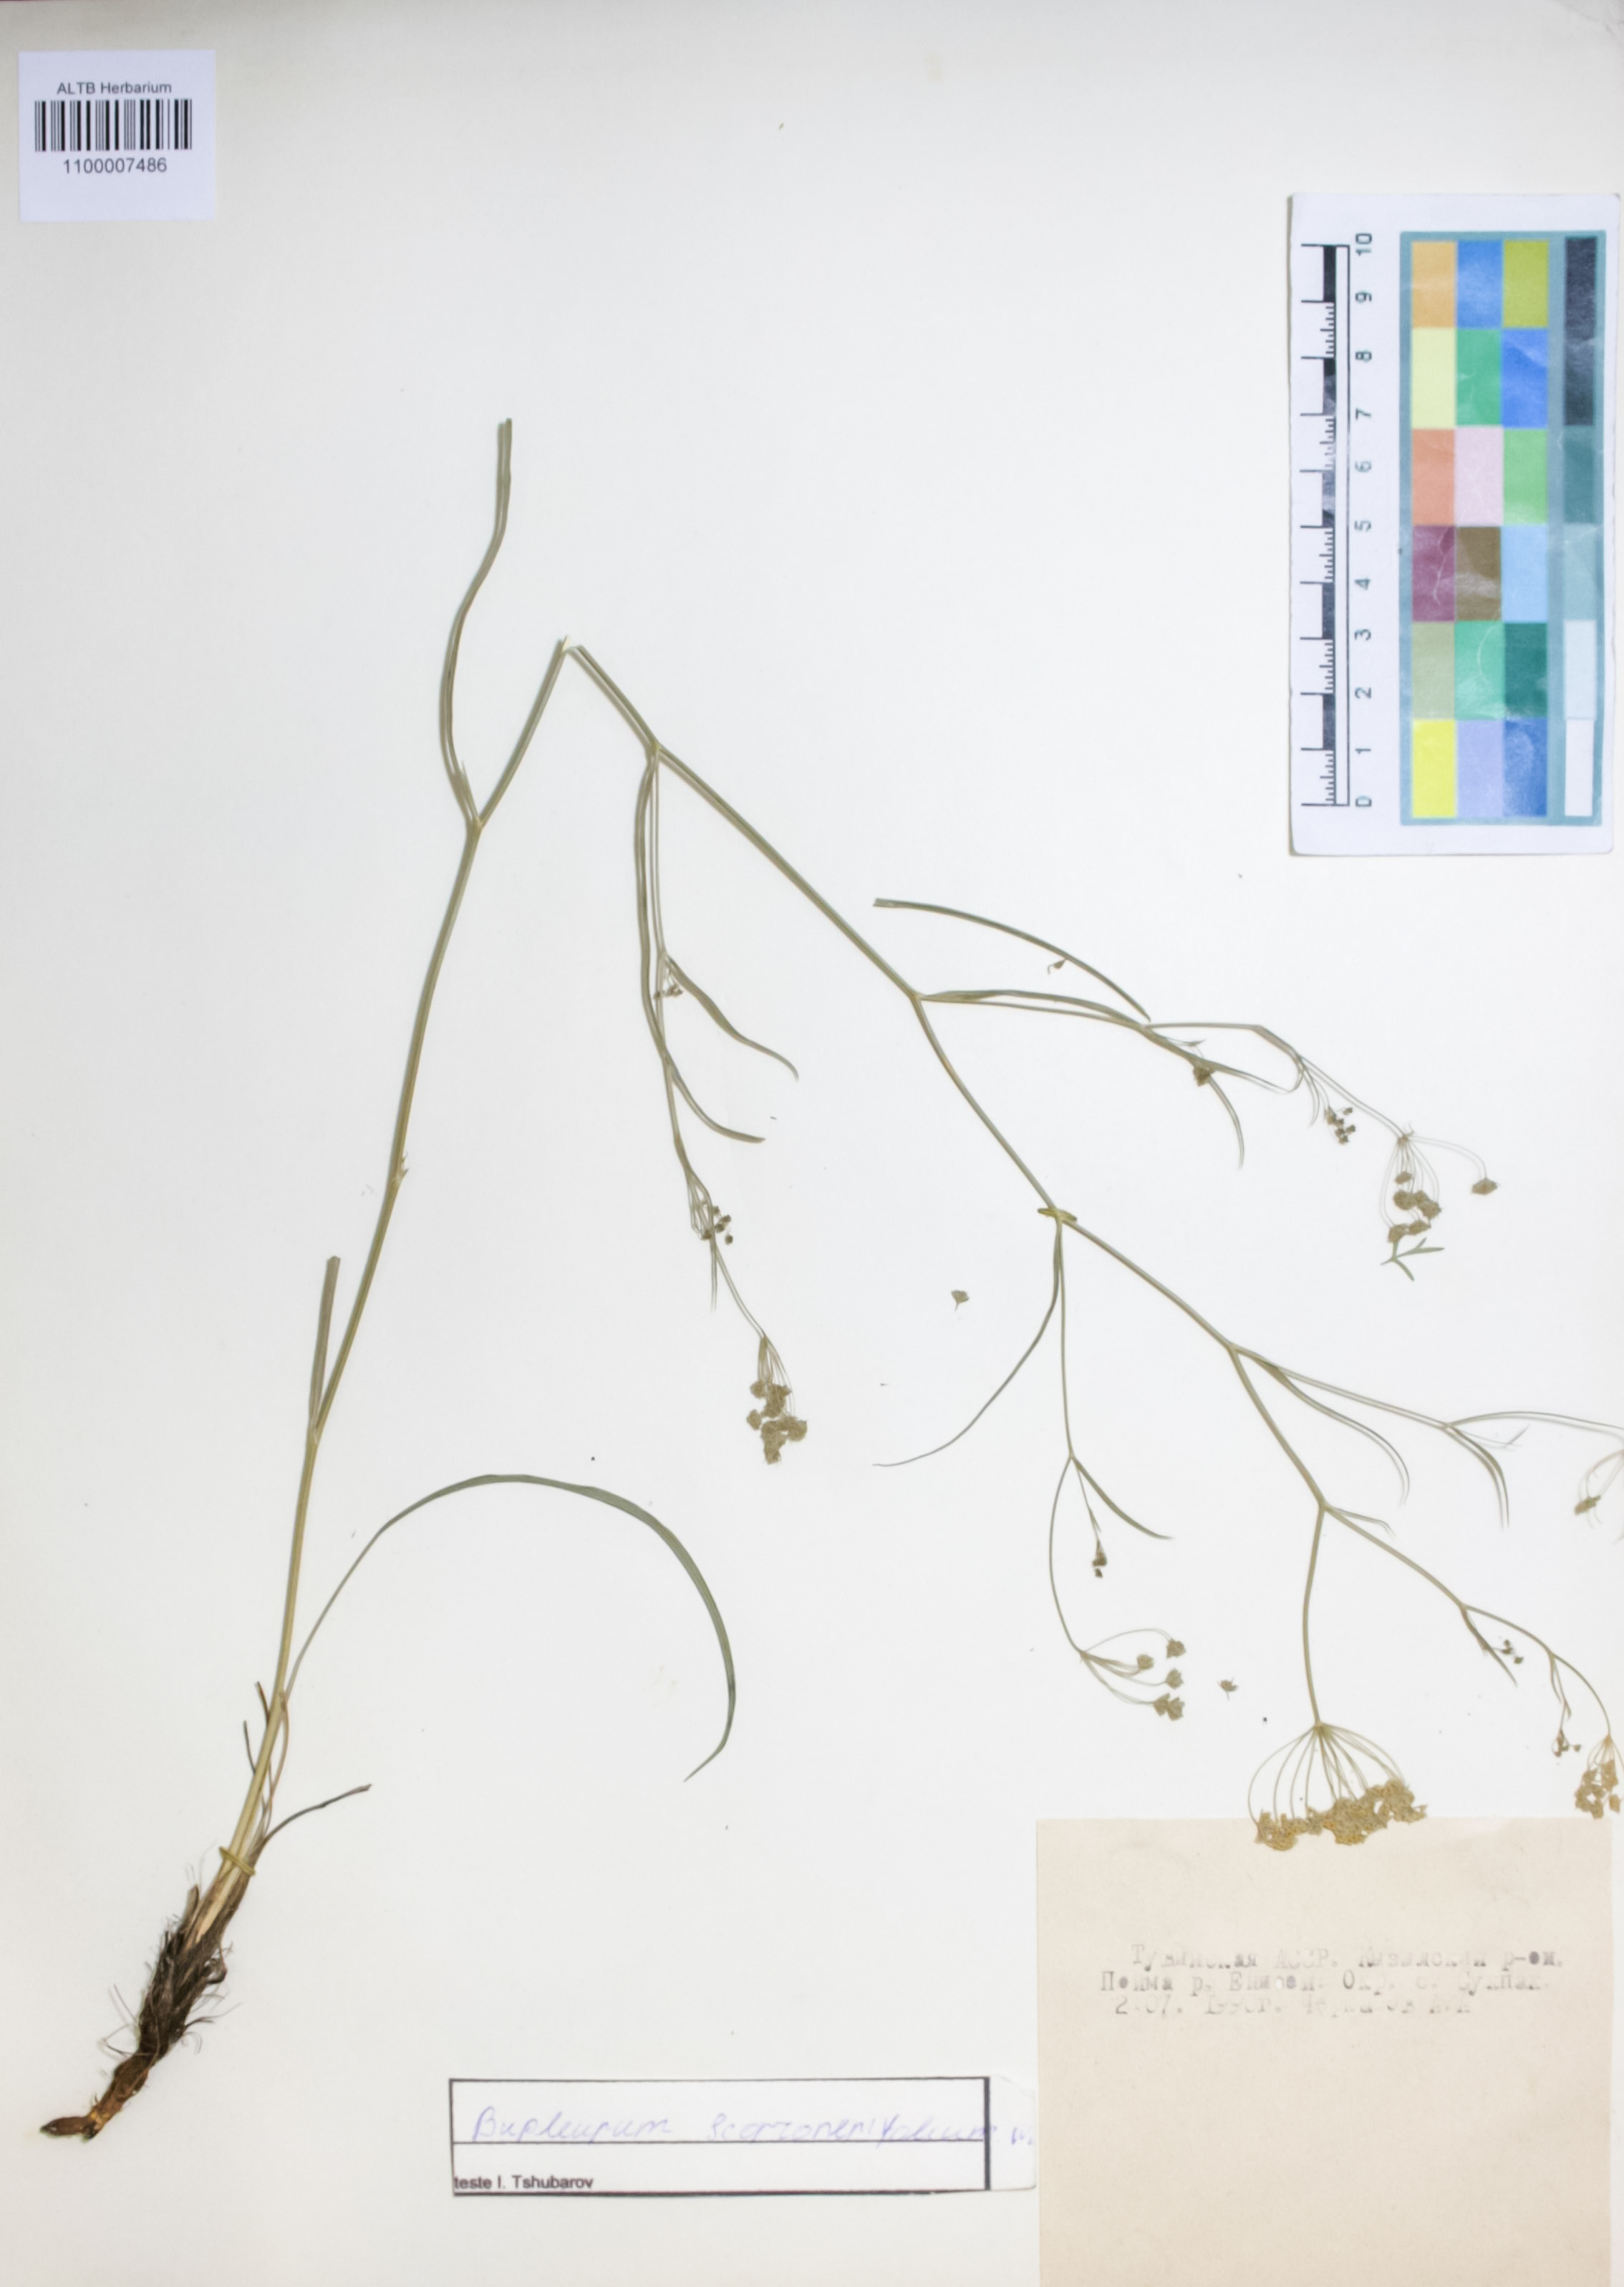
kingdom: Plantae
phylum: Tracheophyta
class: Magnoliopsida
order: Apiales
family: Apiaceae
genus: Bupleurum
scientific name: Bupleurum scorzonerifolium
